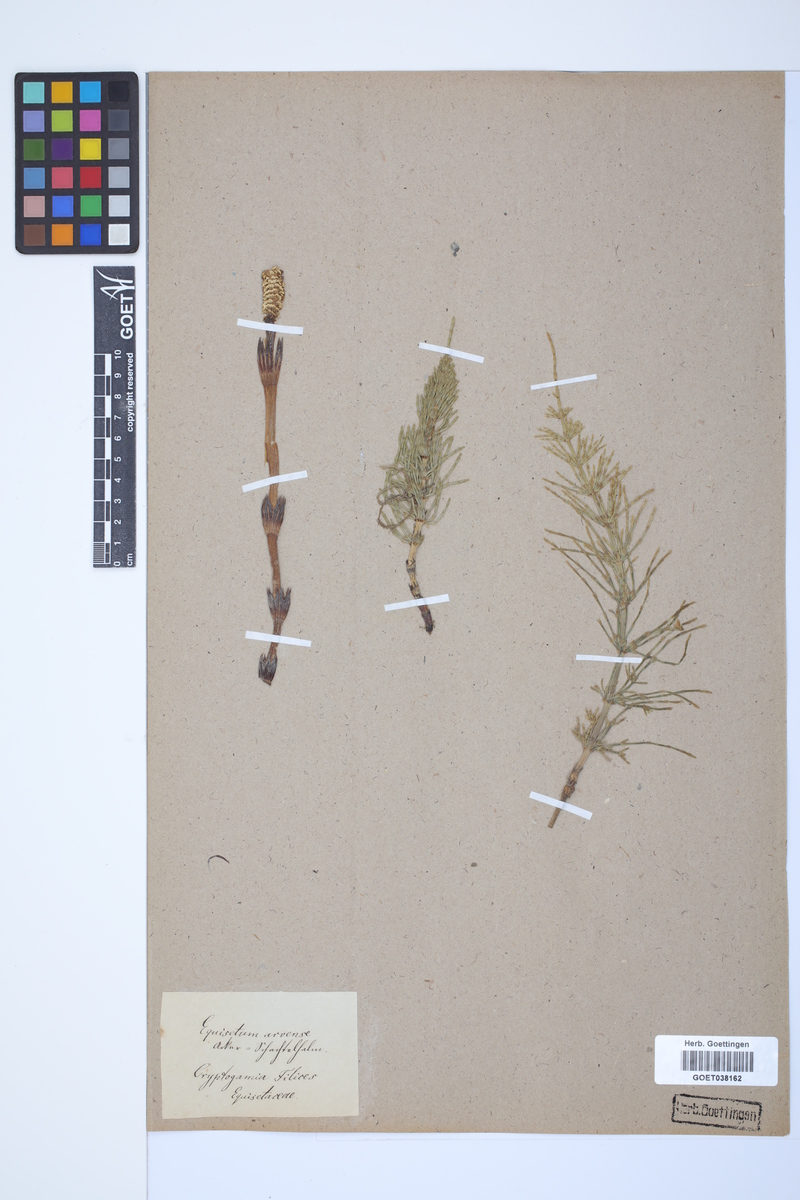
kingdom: Plantae
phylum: Tracheophyta
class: Polypodiopsida
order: Equisetales
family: Equisetaceae
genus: Equisetum
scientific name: Equisetum arvense
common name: Field horsetail
